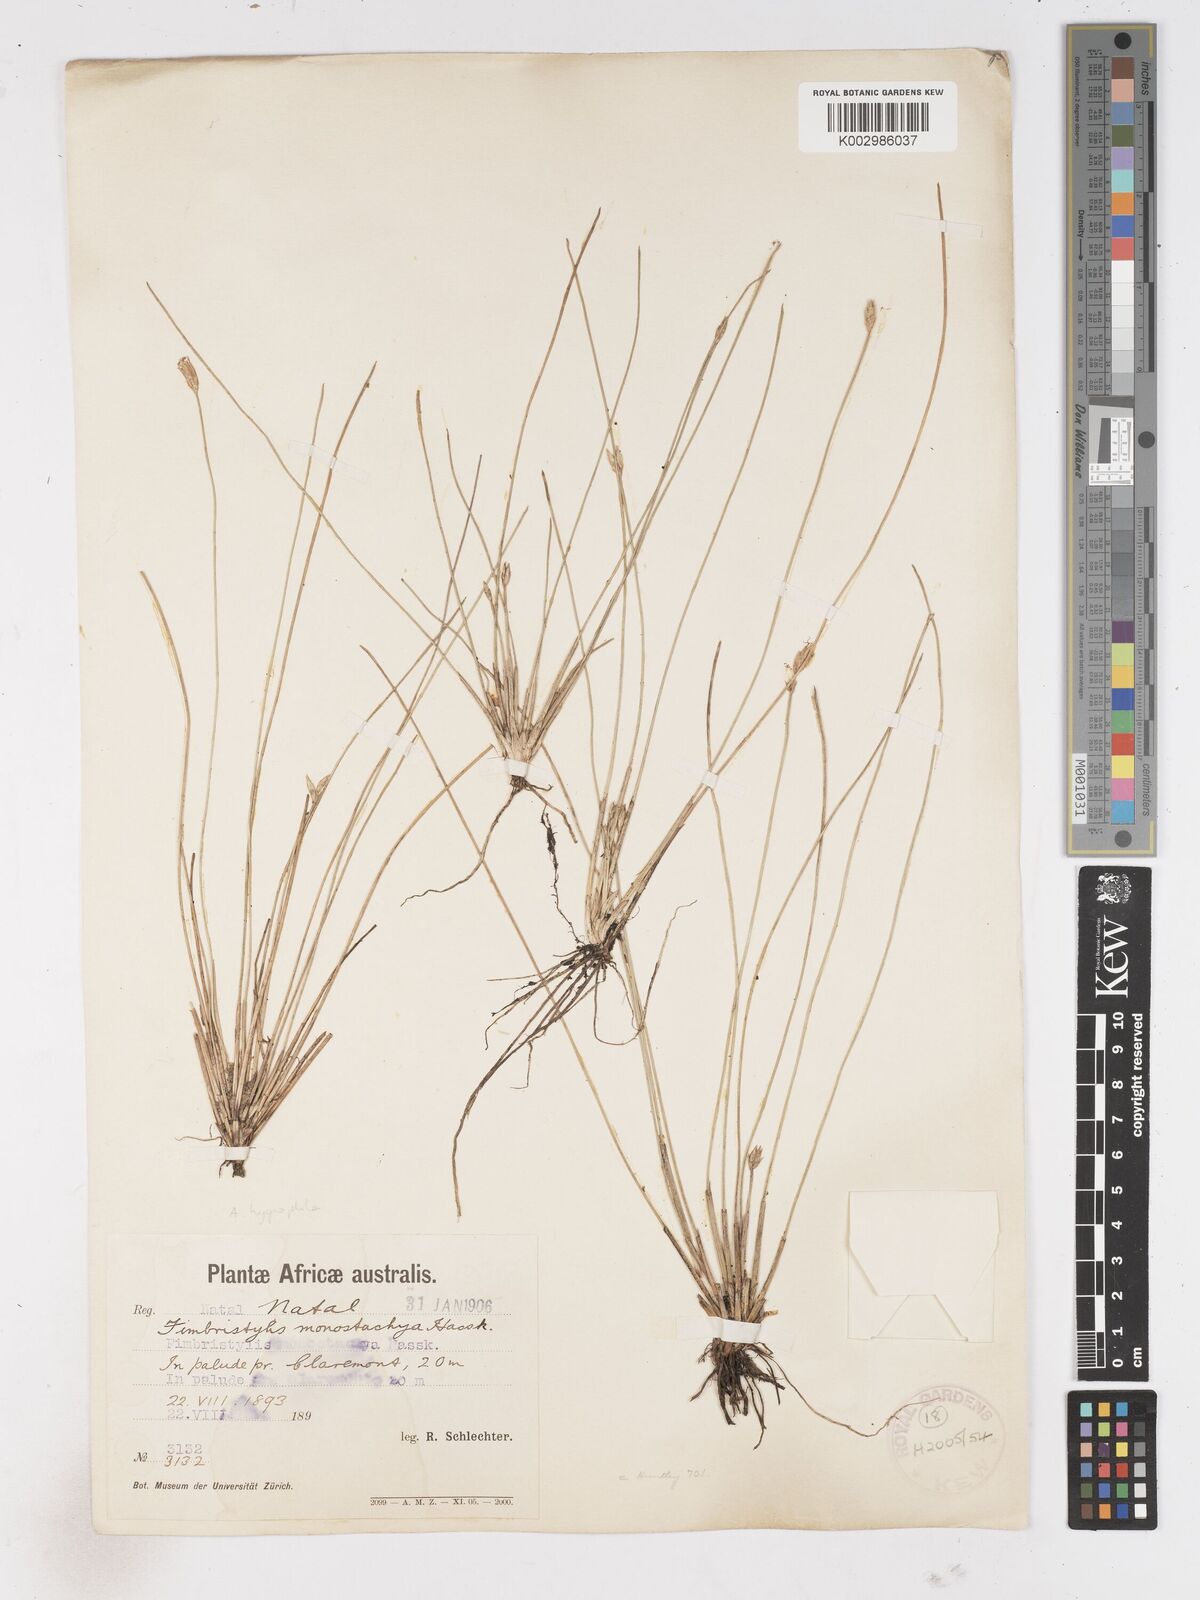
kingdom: Plantae
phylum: Tracheophyta
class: Liliopsida
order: Poales
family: Cyperaceae
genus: Zulustylis
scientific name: Zulustylis hygrophila
